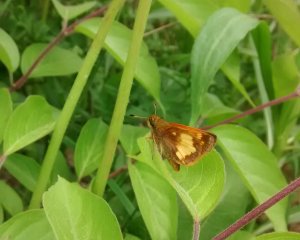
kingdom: Animalia
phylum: Arthropoda
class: Insecta
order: Lepidoptera
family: Hesperiidae
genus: Lon
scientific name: Lon hobomok
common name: Hobomok Skipper
